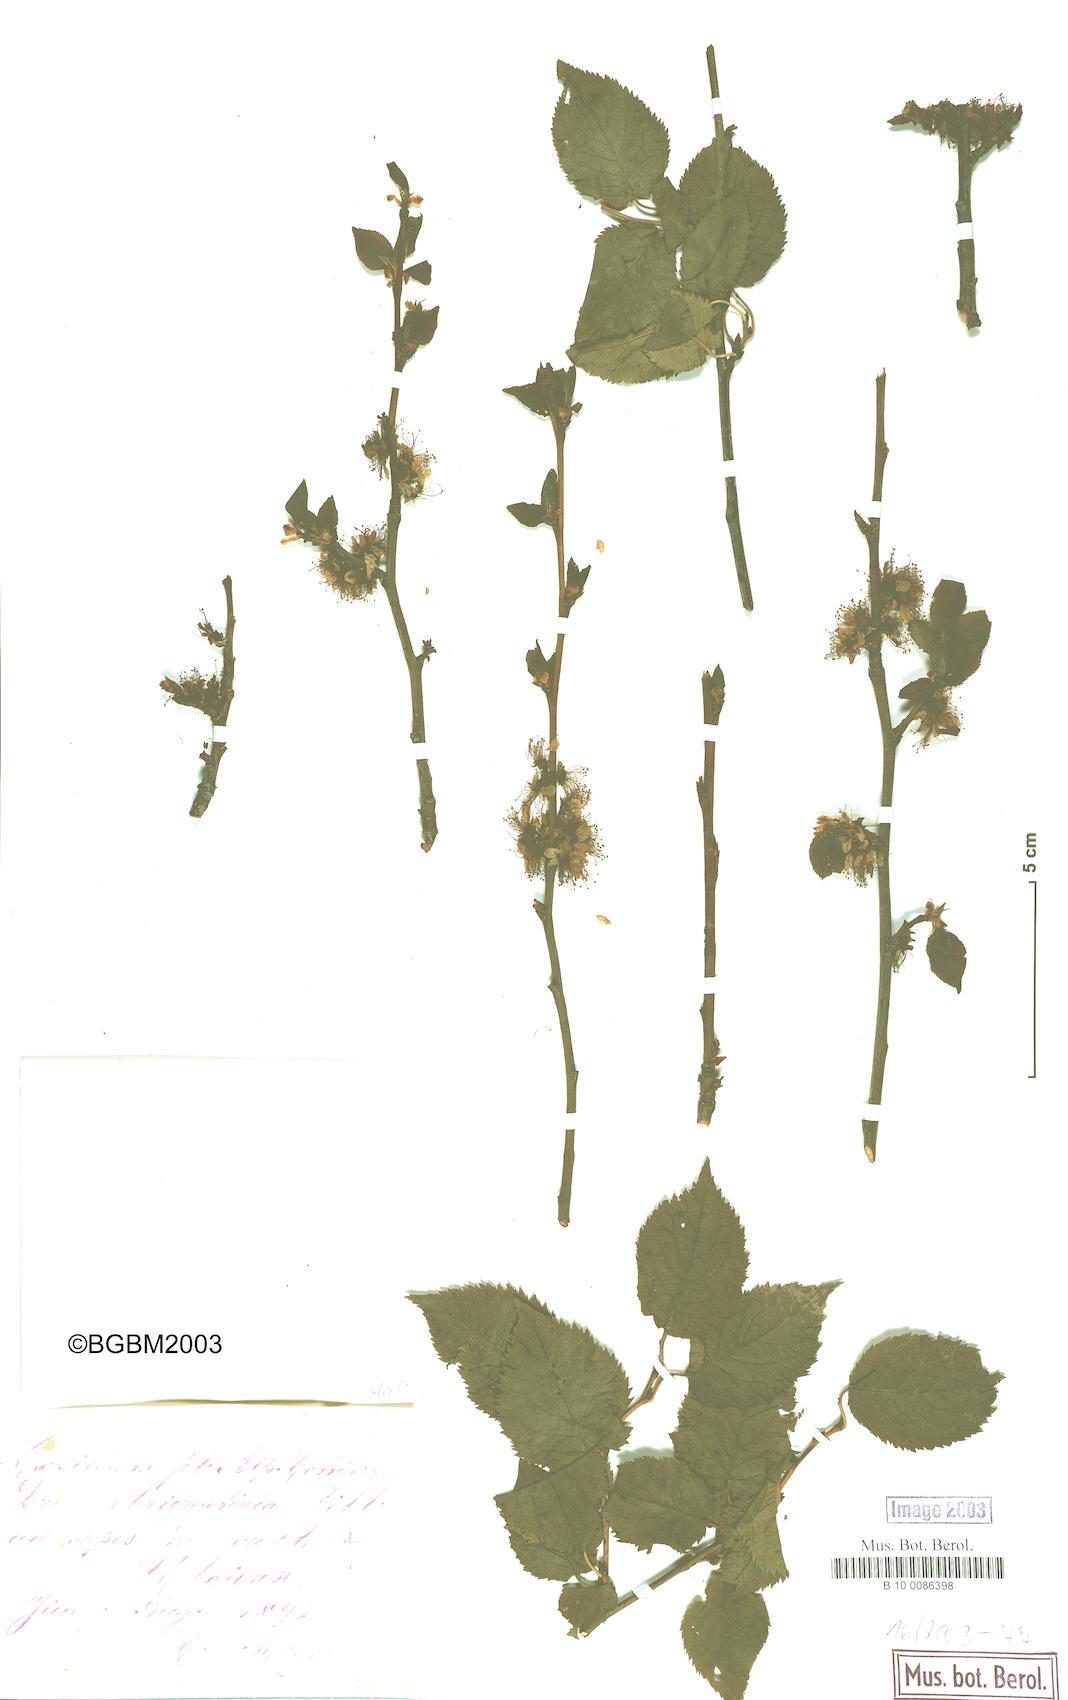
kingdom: Plantae
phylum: Tracheophyta
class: Magnoliopsida
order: Rosales
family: Rosaceae
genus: Prunus
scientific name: Prunus
